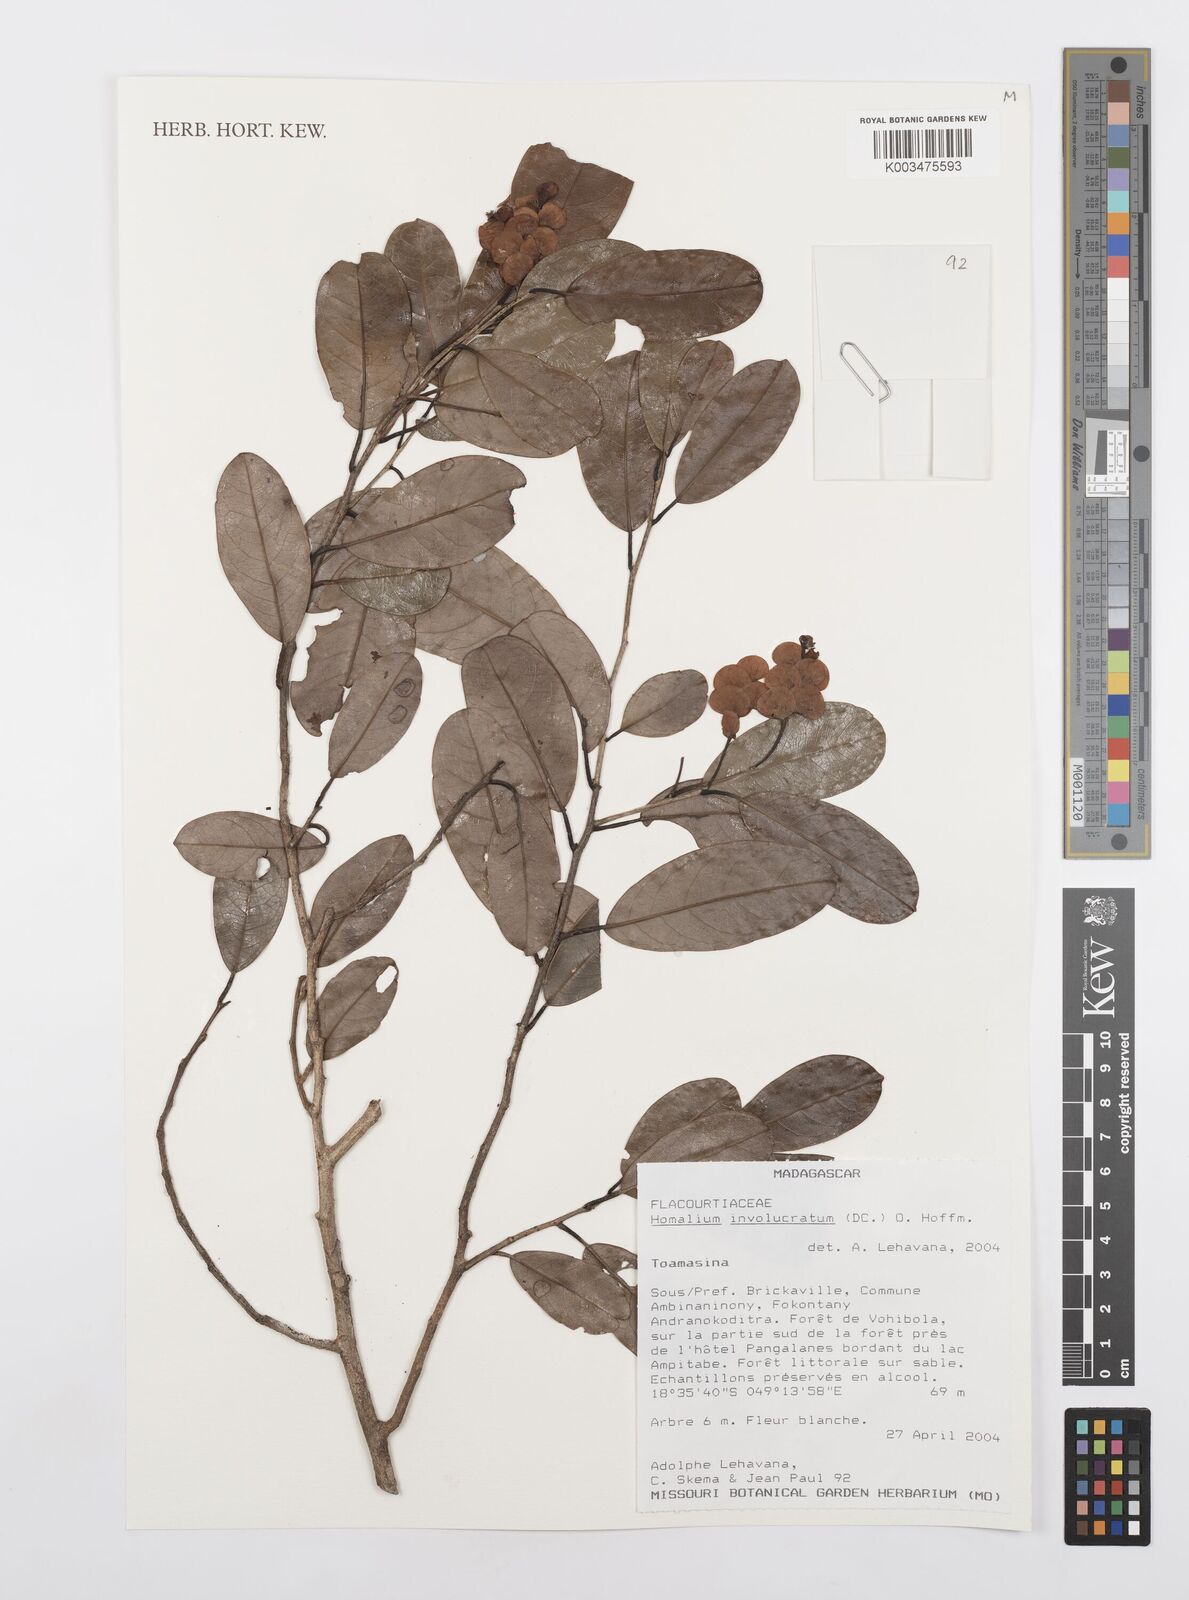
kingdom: Plantae
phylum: Tracheophyta
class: Magnoliopsida
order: Malpighiales
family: Salicaceae
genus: Homalium
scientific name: Homalium involucratum
